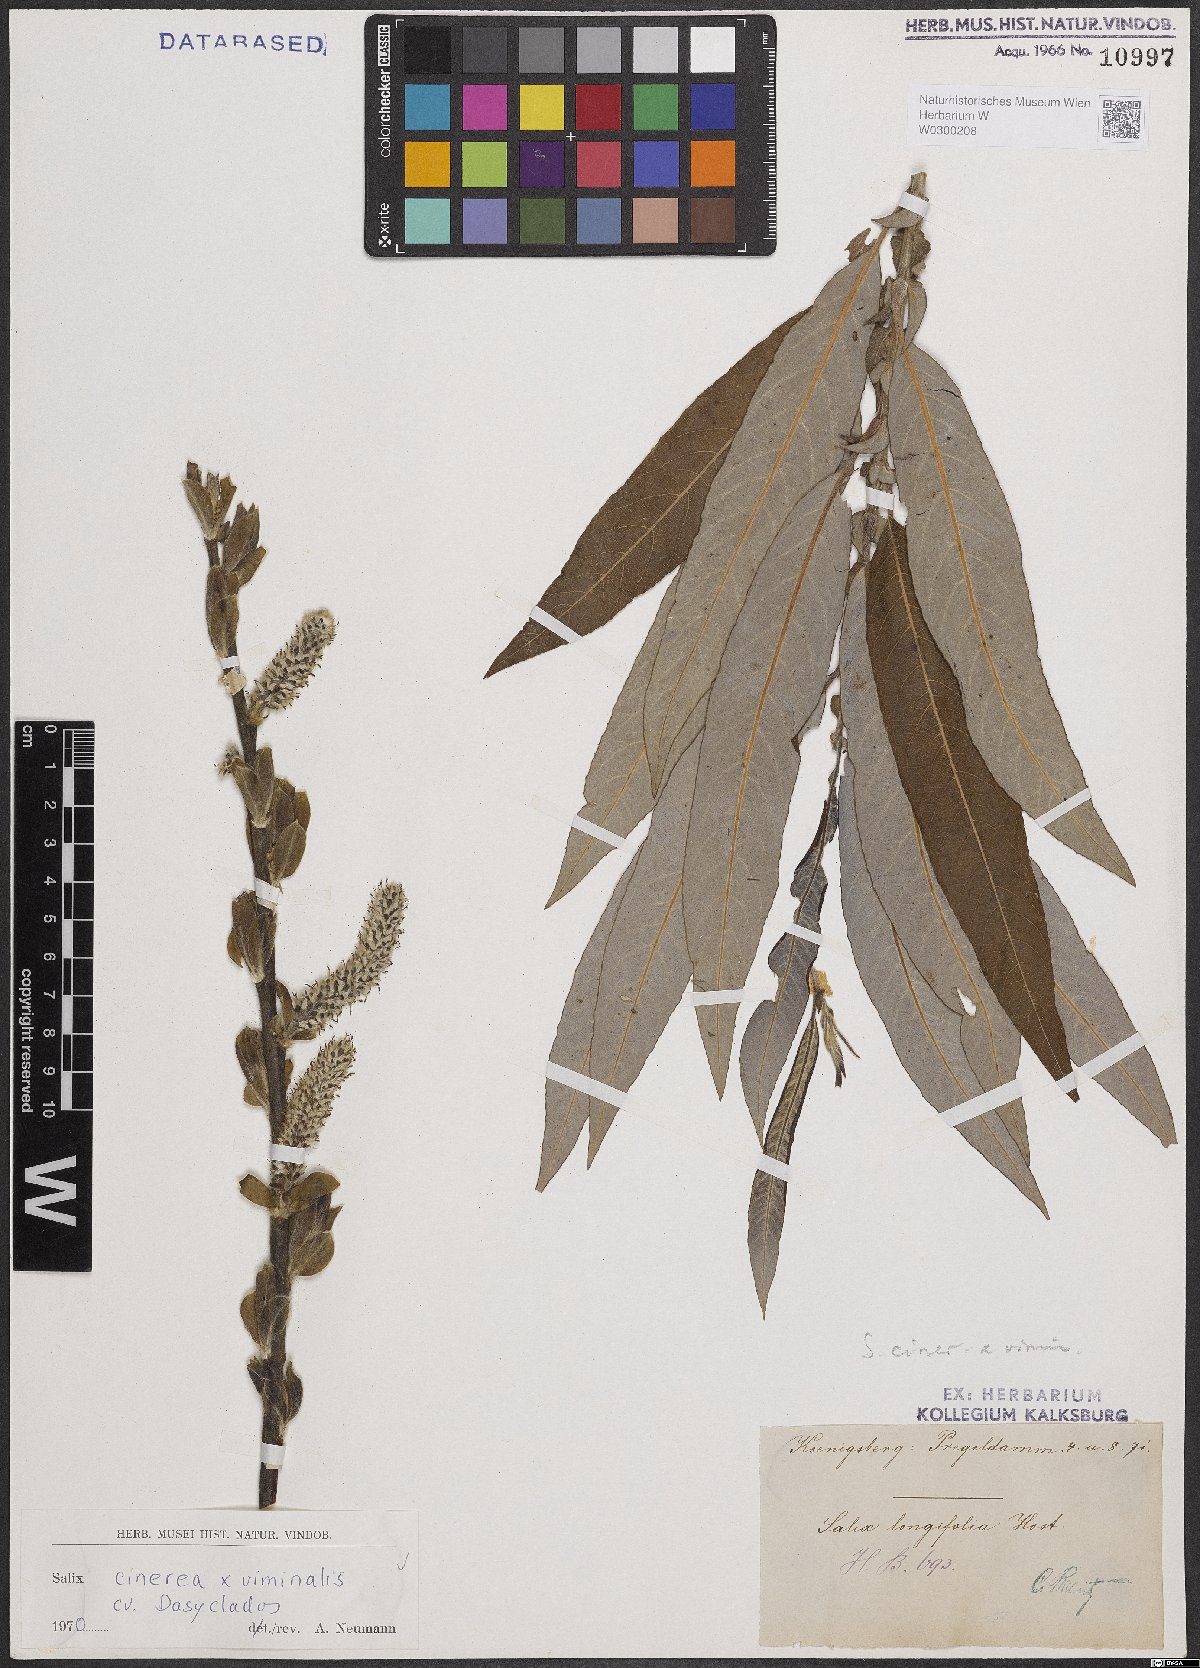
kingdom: Plantae
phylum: Tracheophyta
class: Magnoliopsida
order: Malpighiales
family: Salicaceae
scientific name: Salicaceae
